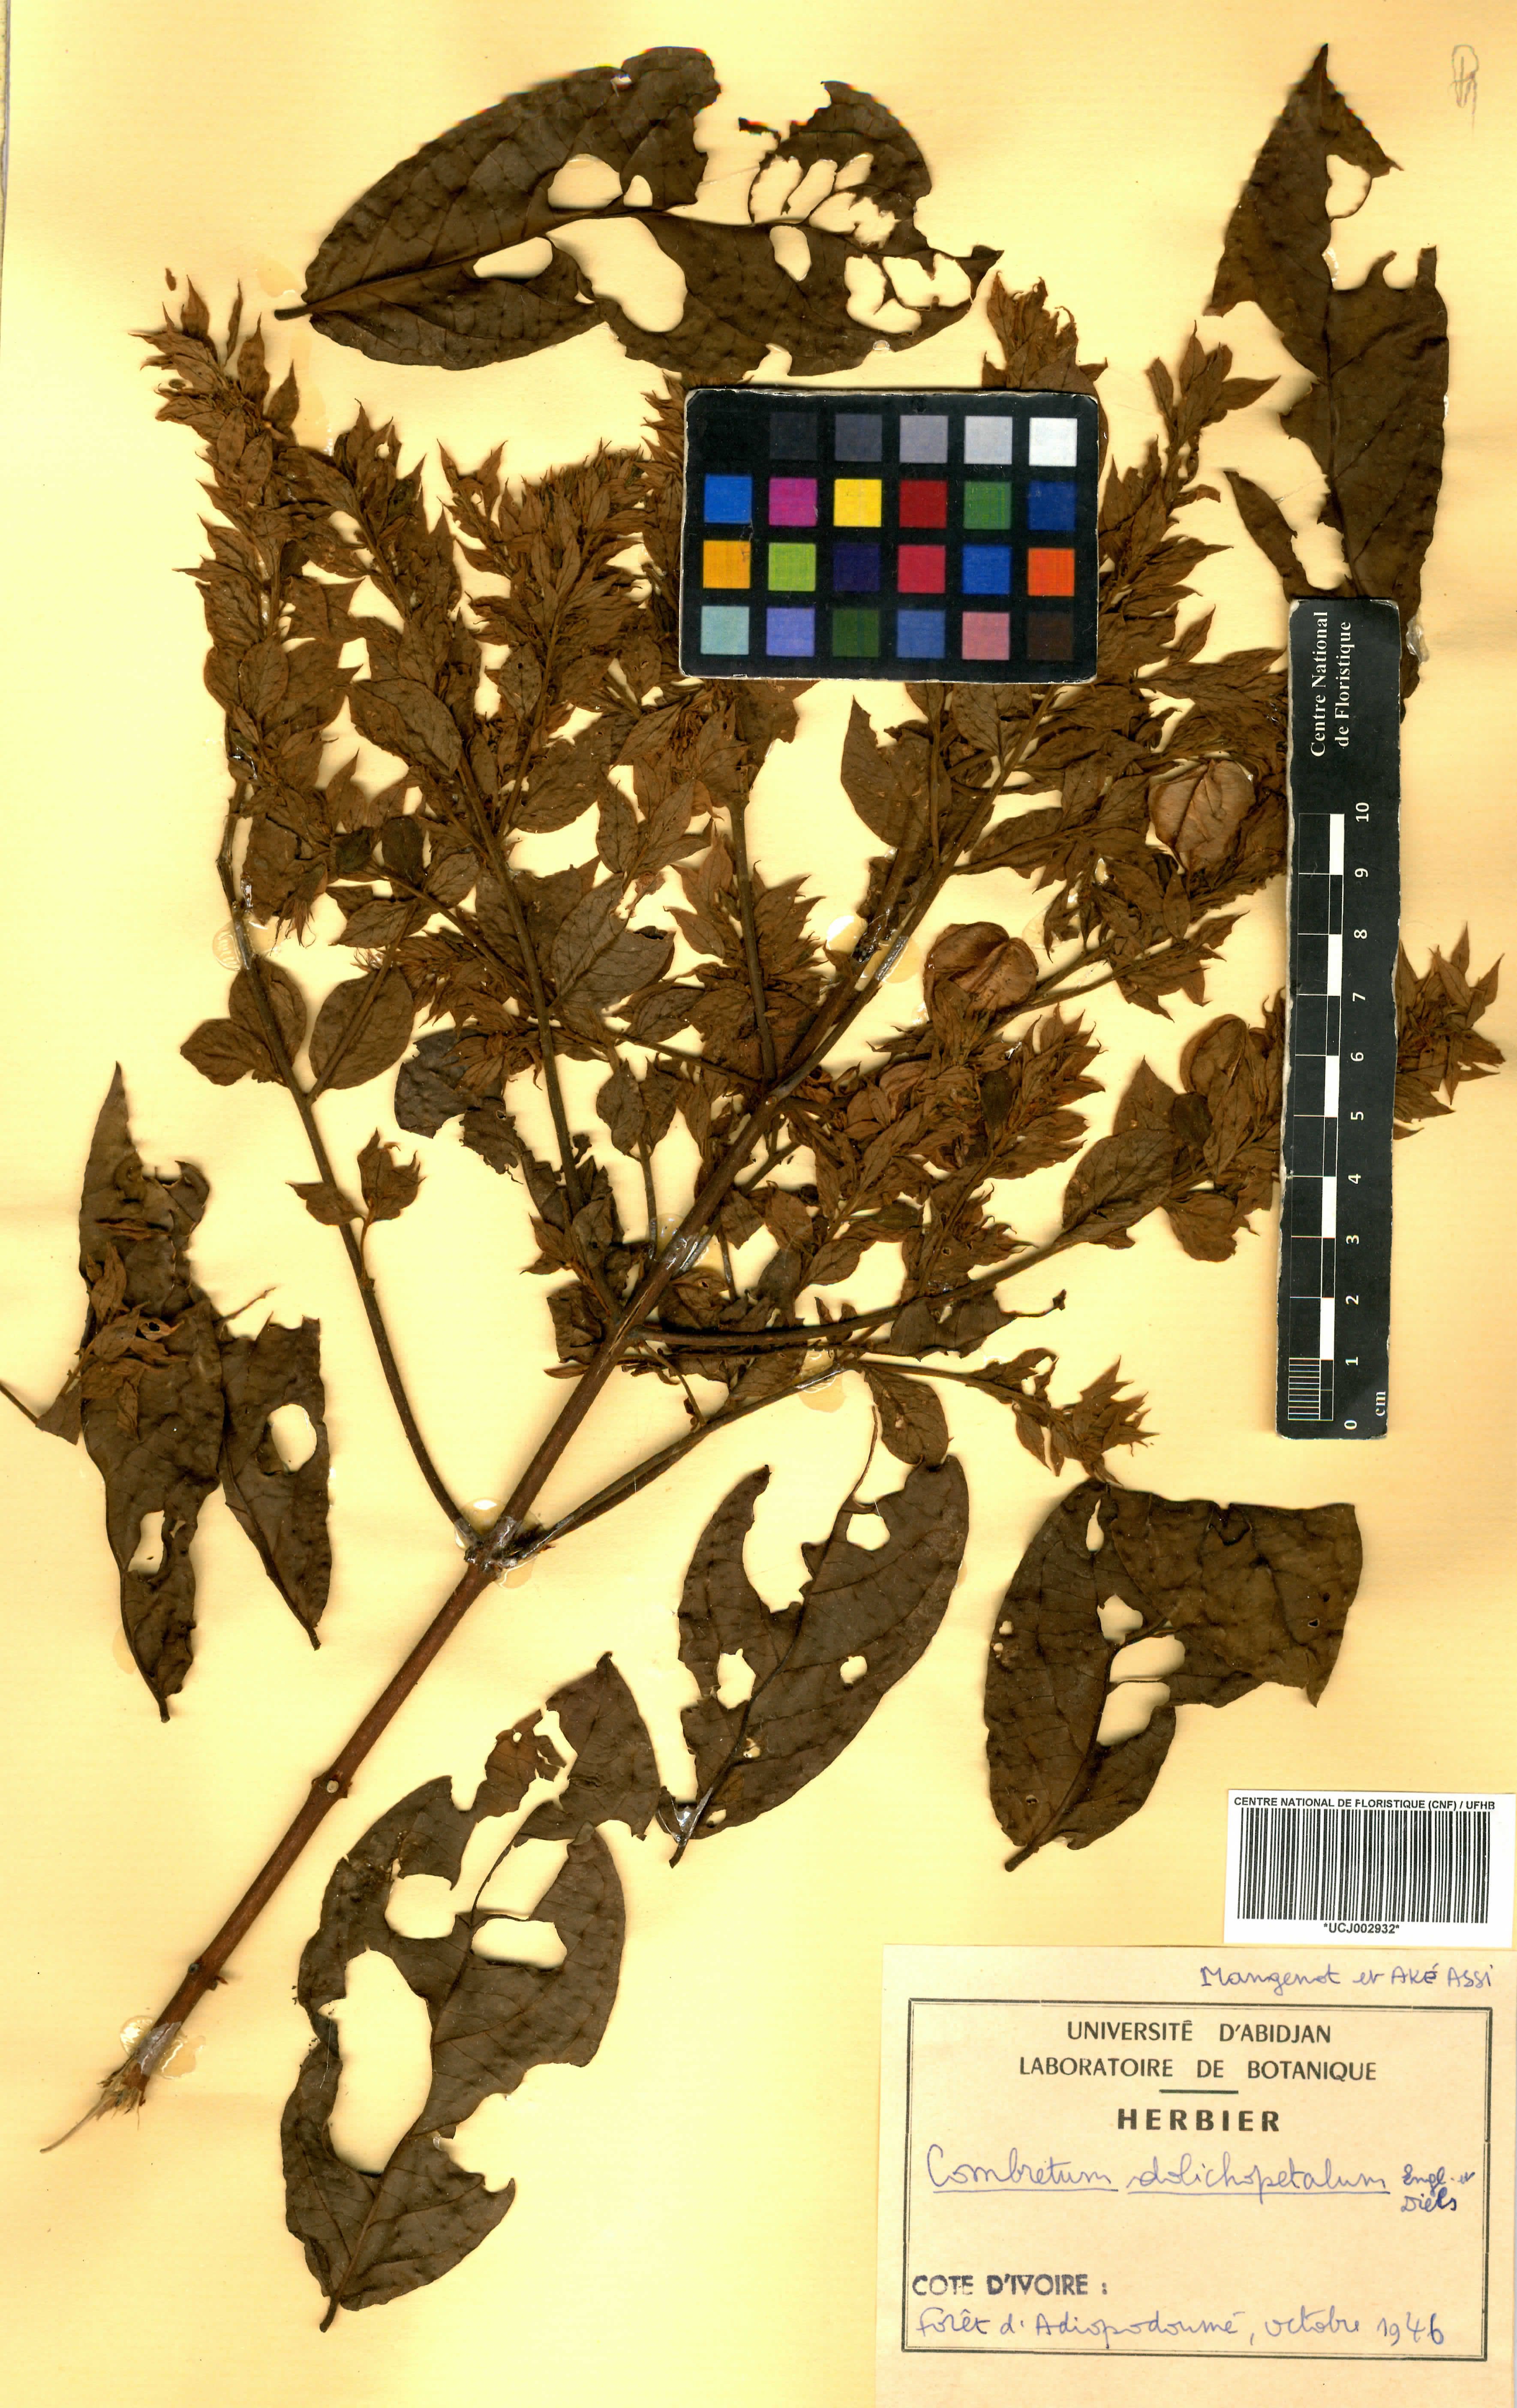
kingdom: Plantae
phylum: Tracheophyta
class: Magnoliopsida
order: Myrtales
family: Combretaceae
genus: Combretum
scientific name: Combretum comosum
